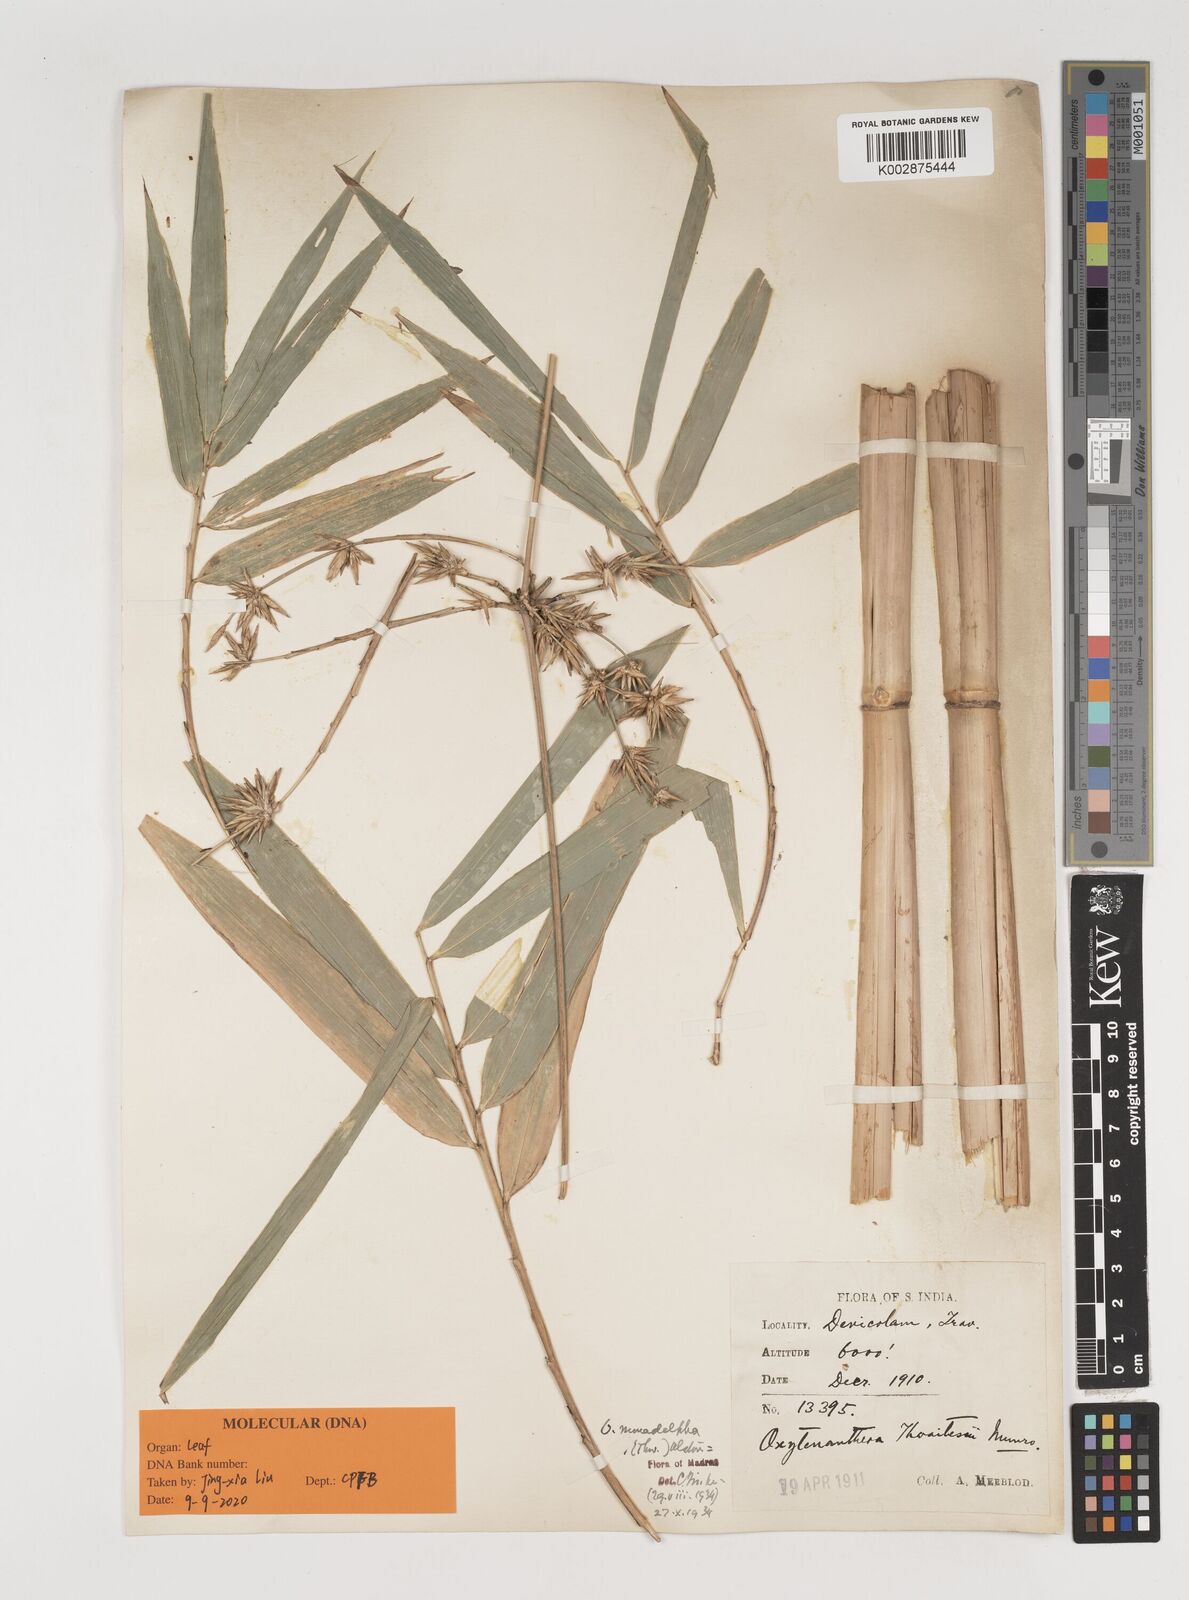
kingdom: Plantae
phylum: Tracheophyta
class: Liliopsida
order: Poales
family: Poaceae
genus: Pseudoxytenanthera
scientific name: Pseudoxytenanthera monadelpha
